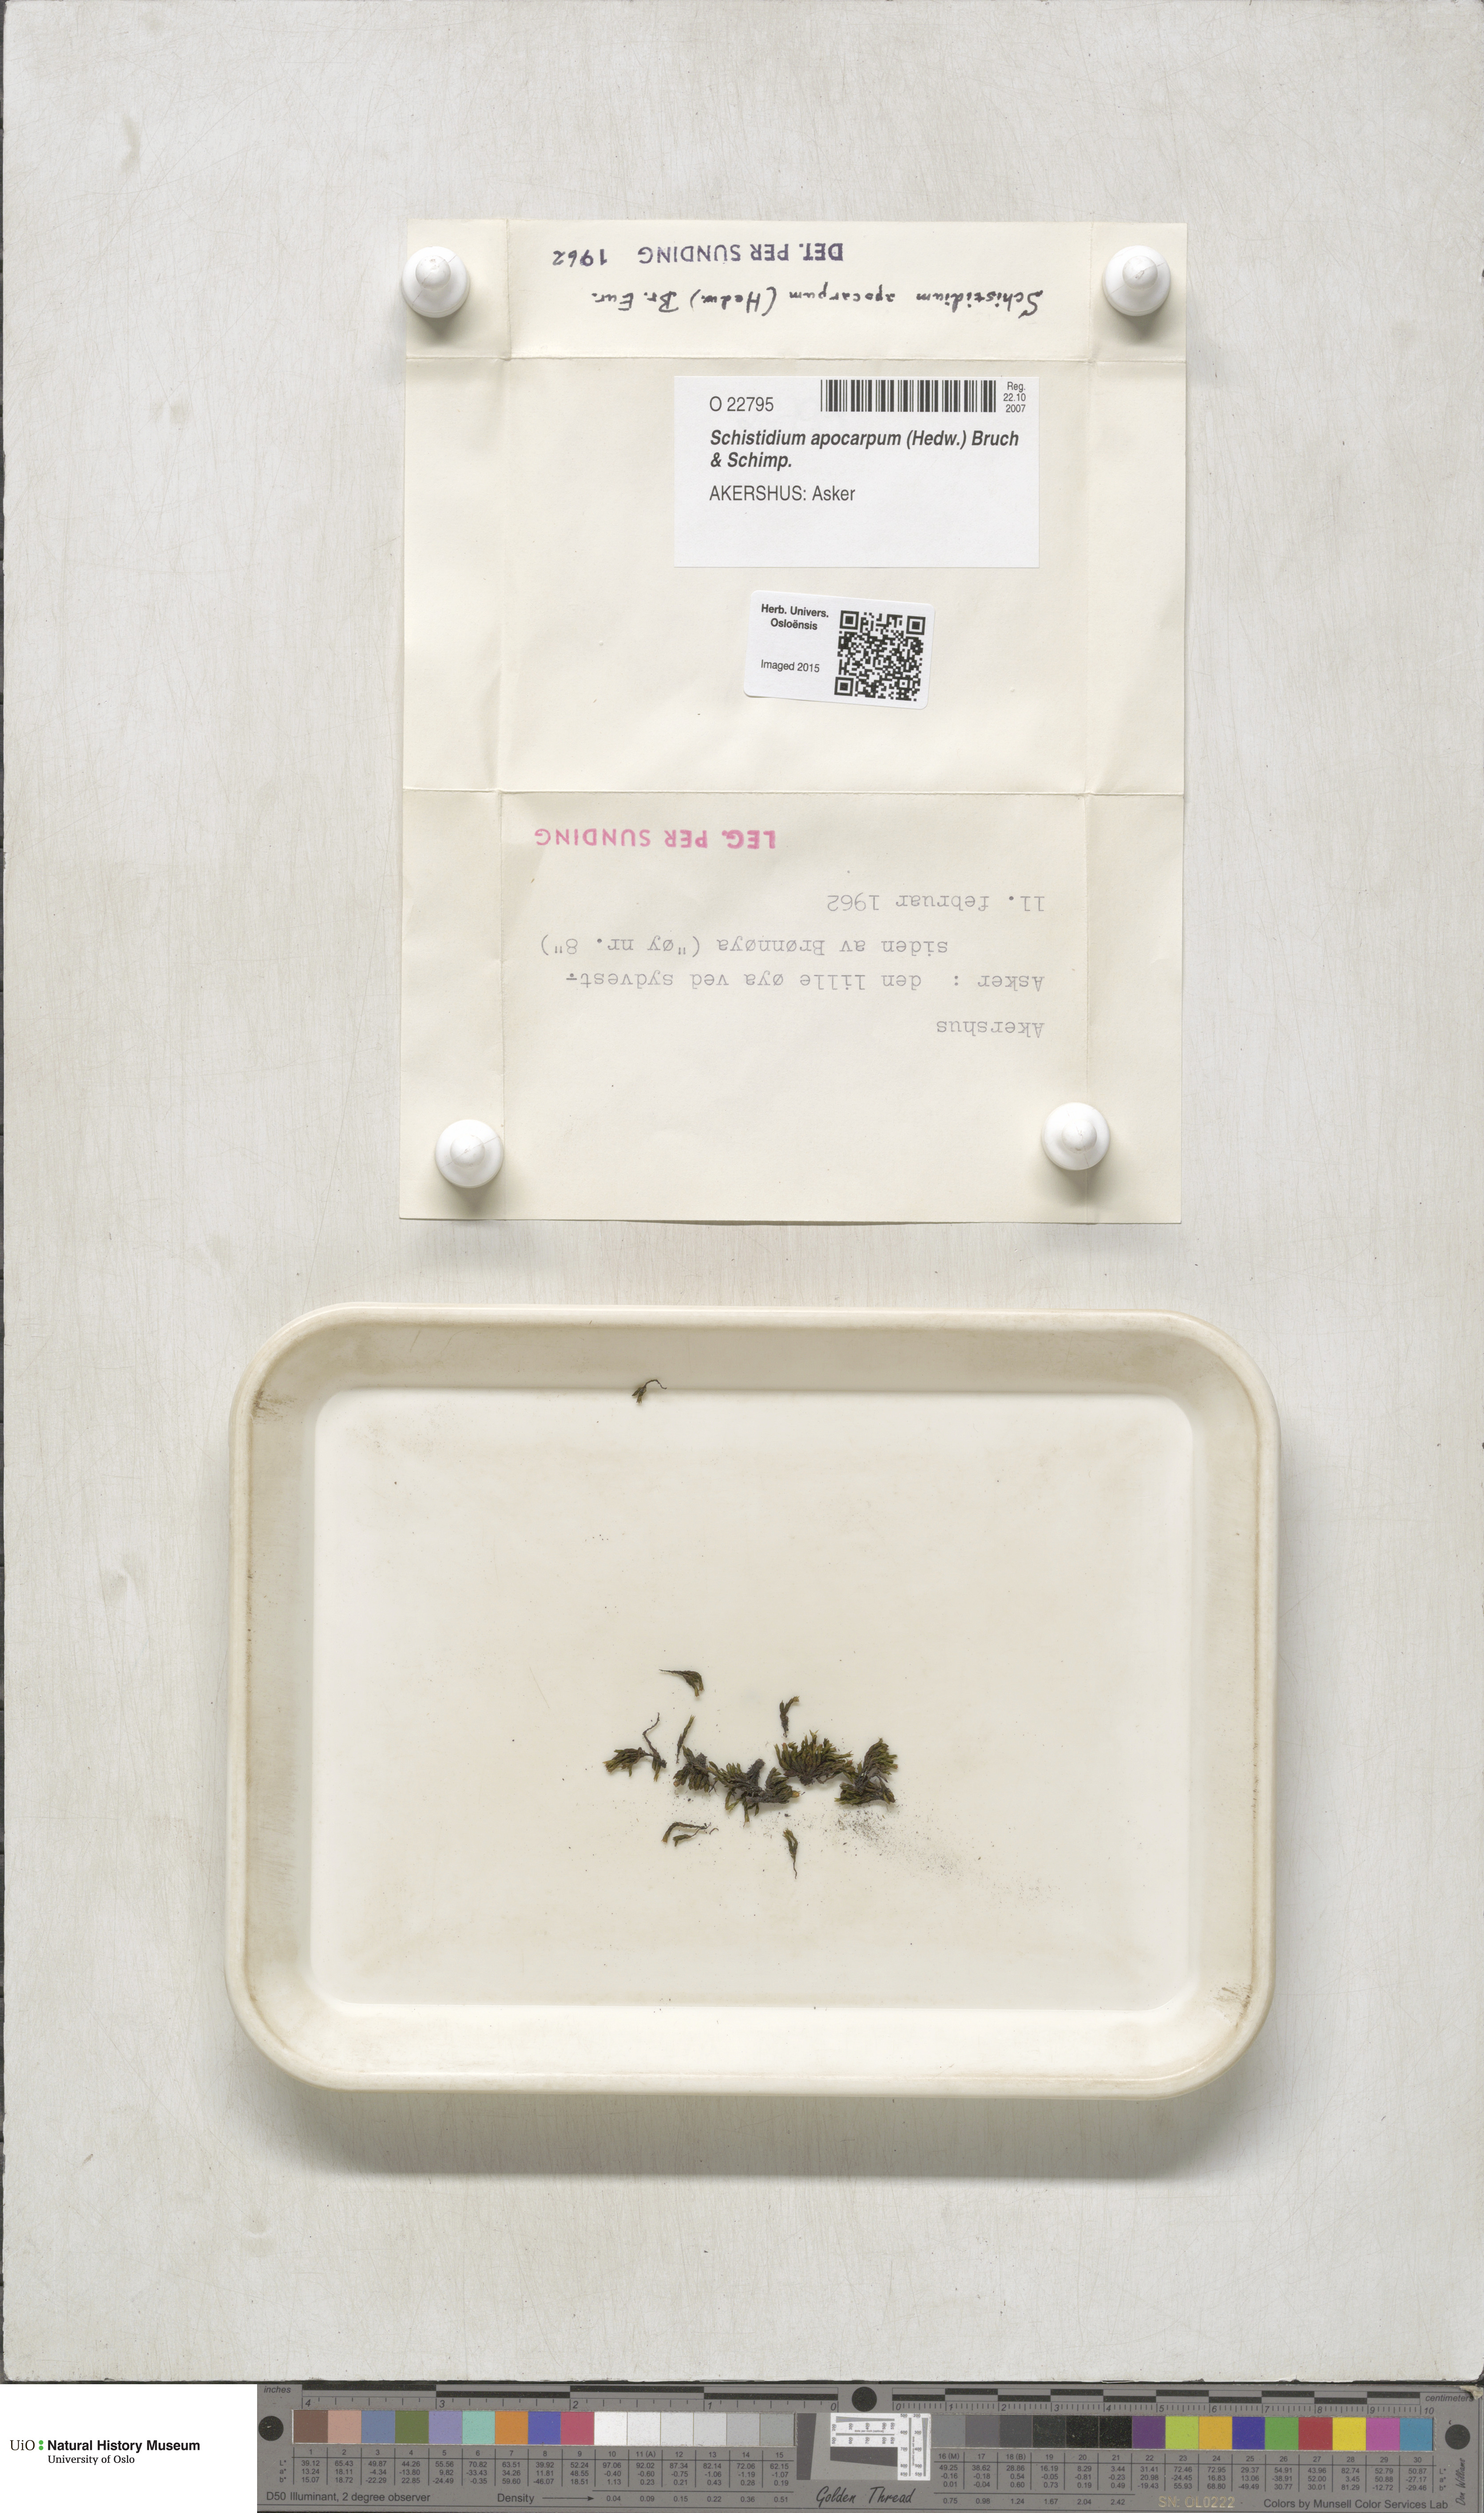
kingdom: Plantae
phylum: Bryophyta
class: Bryopsida
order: Grimmiales
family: Grimmiaceae
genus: Schistidium
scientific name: Schistidium apocarpum
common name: Radiate bloom moss
